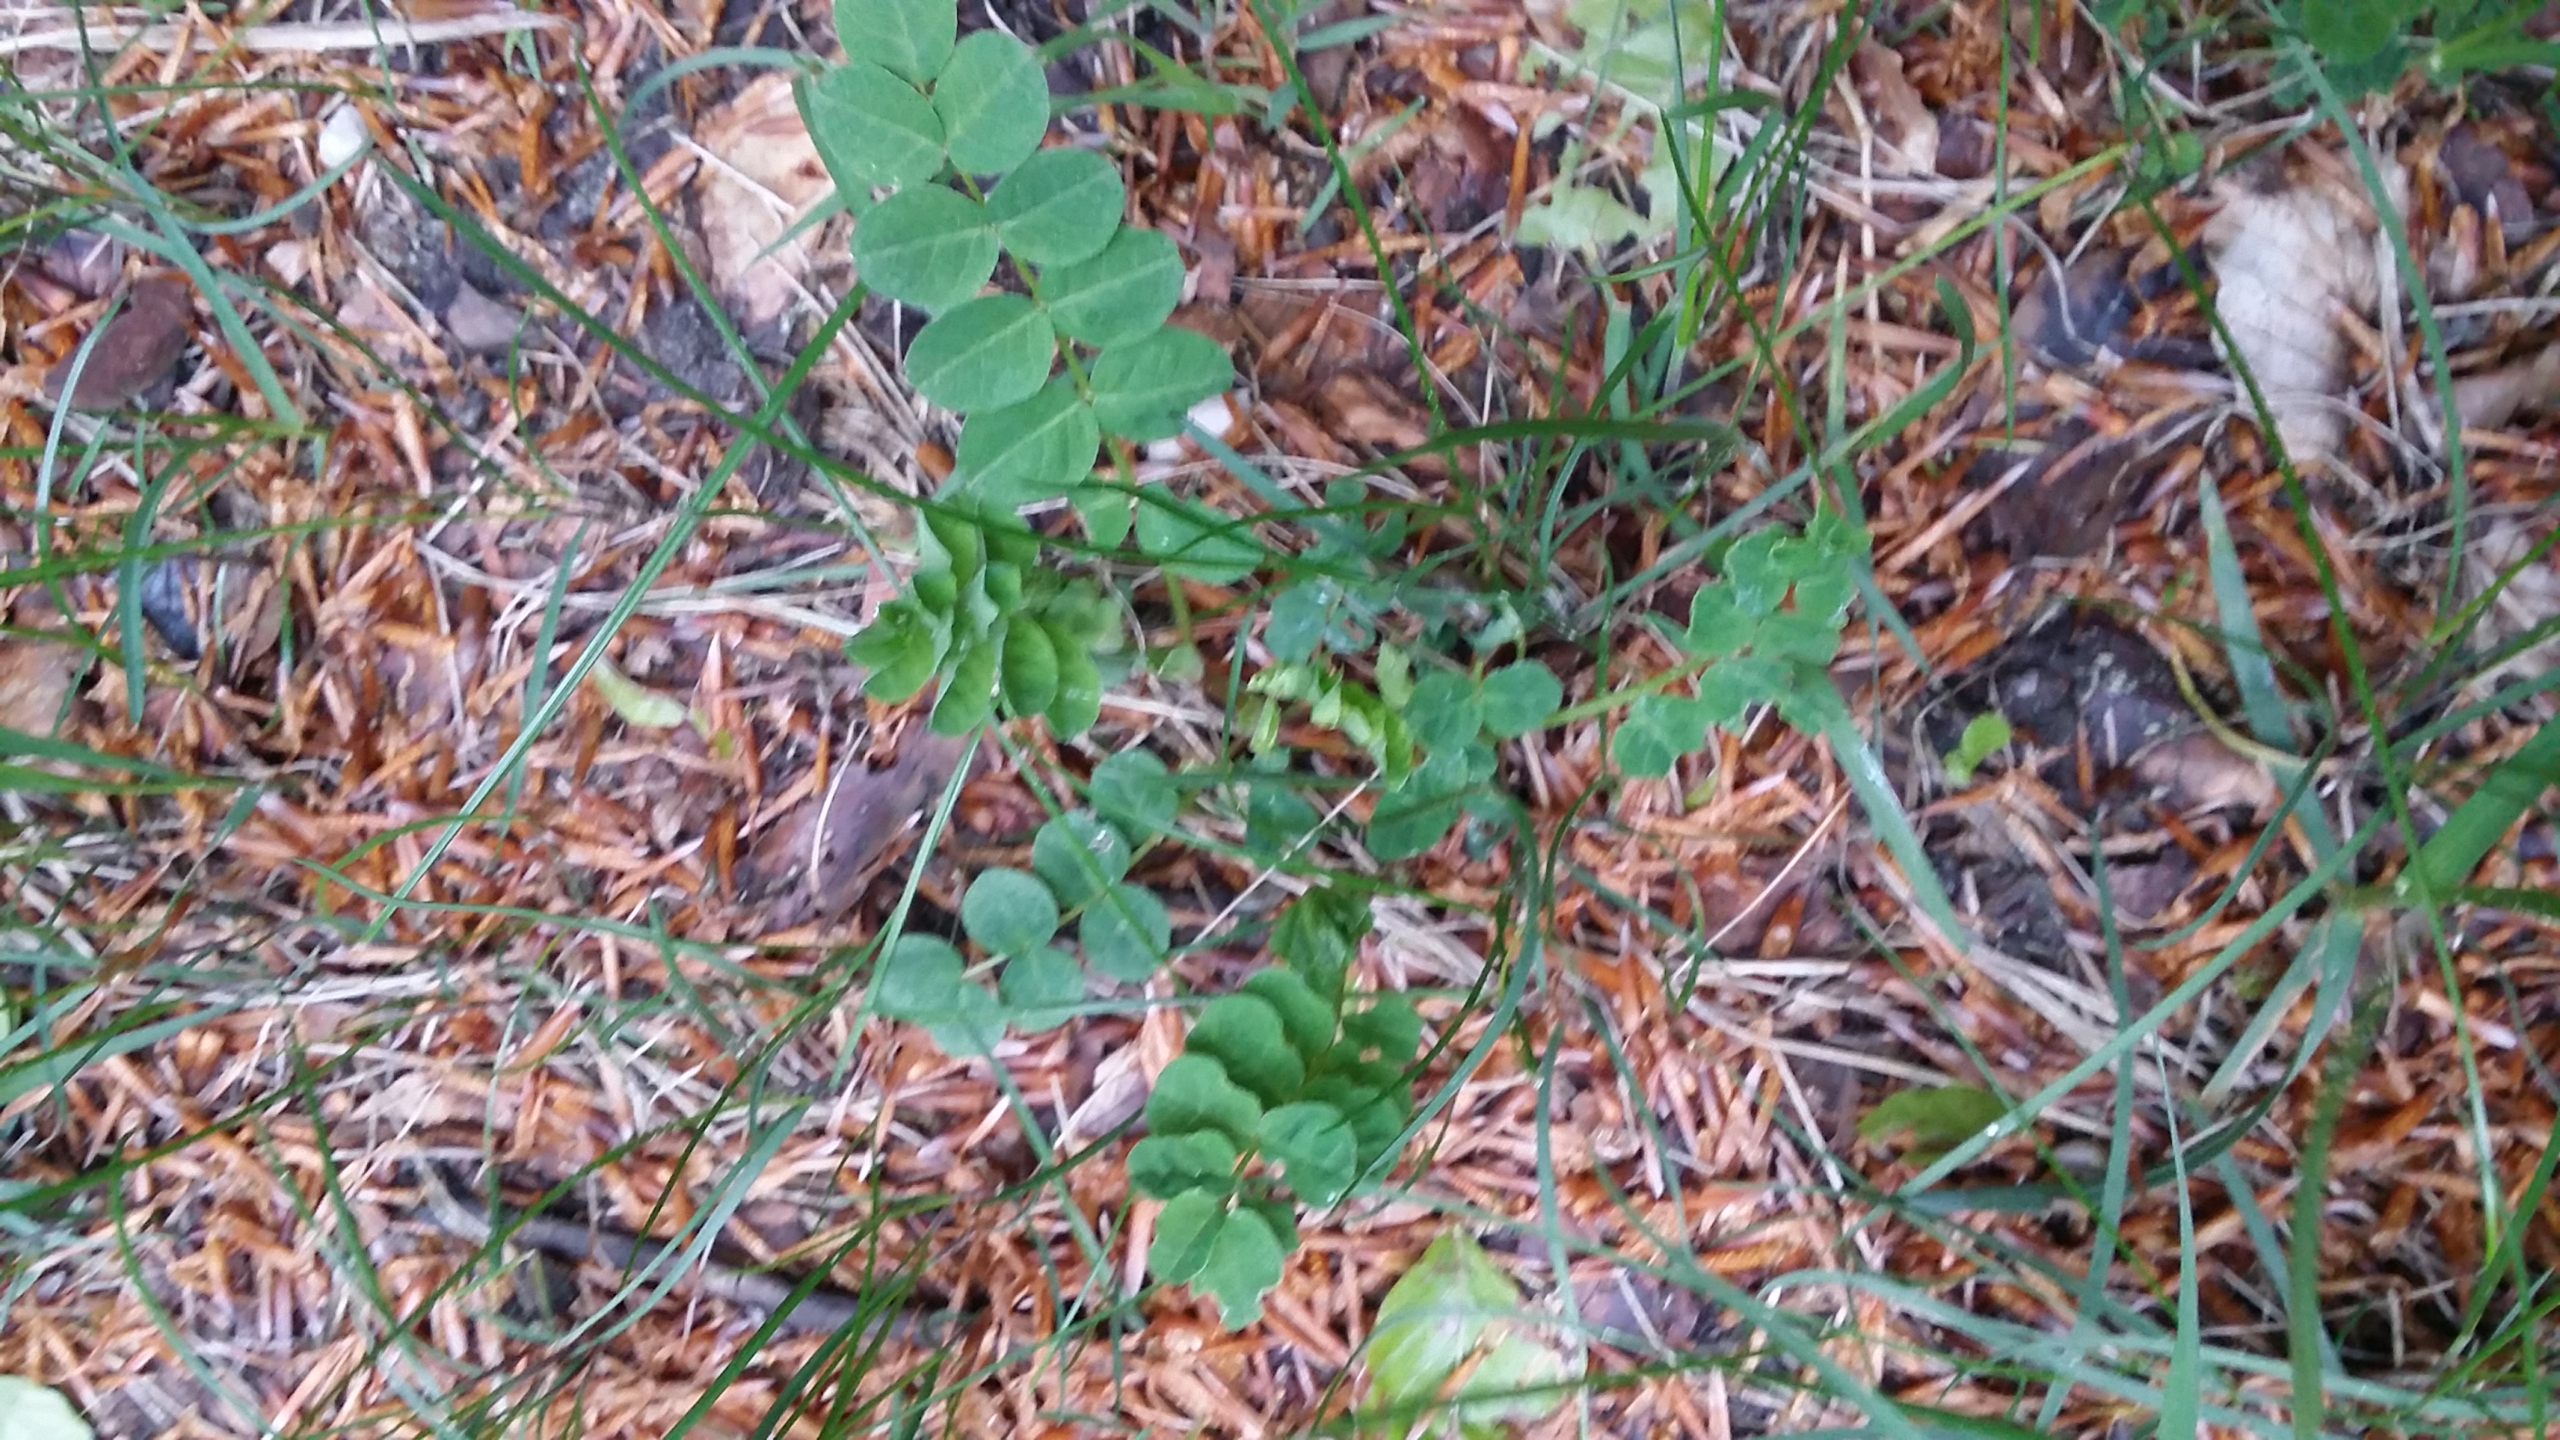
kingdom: Plantae
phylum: Tracheophyta
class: Magnoliopsida
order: Fabales
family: Fabaceae
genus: Astragalus
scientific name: Astragalus glycyphyllos
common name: Sød astragel
